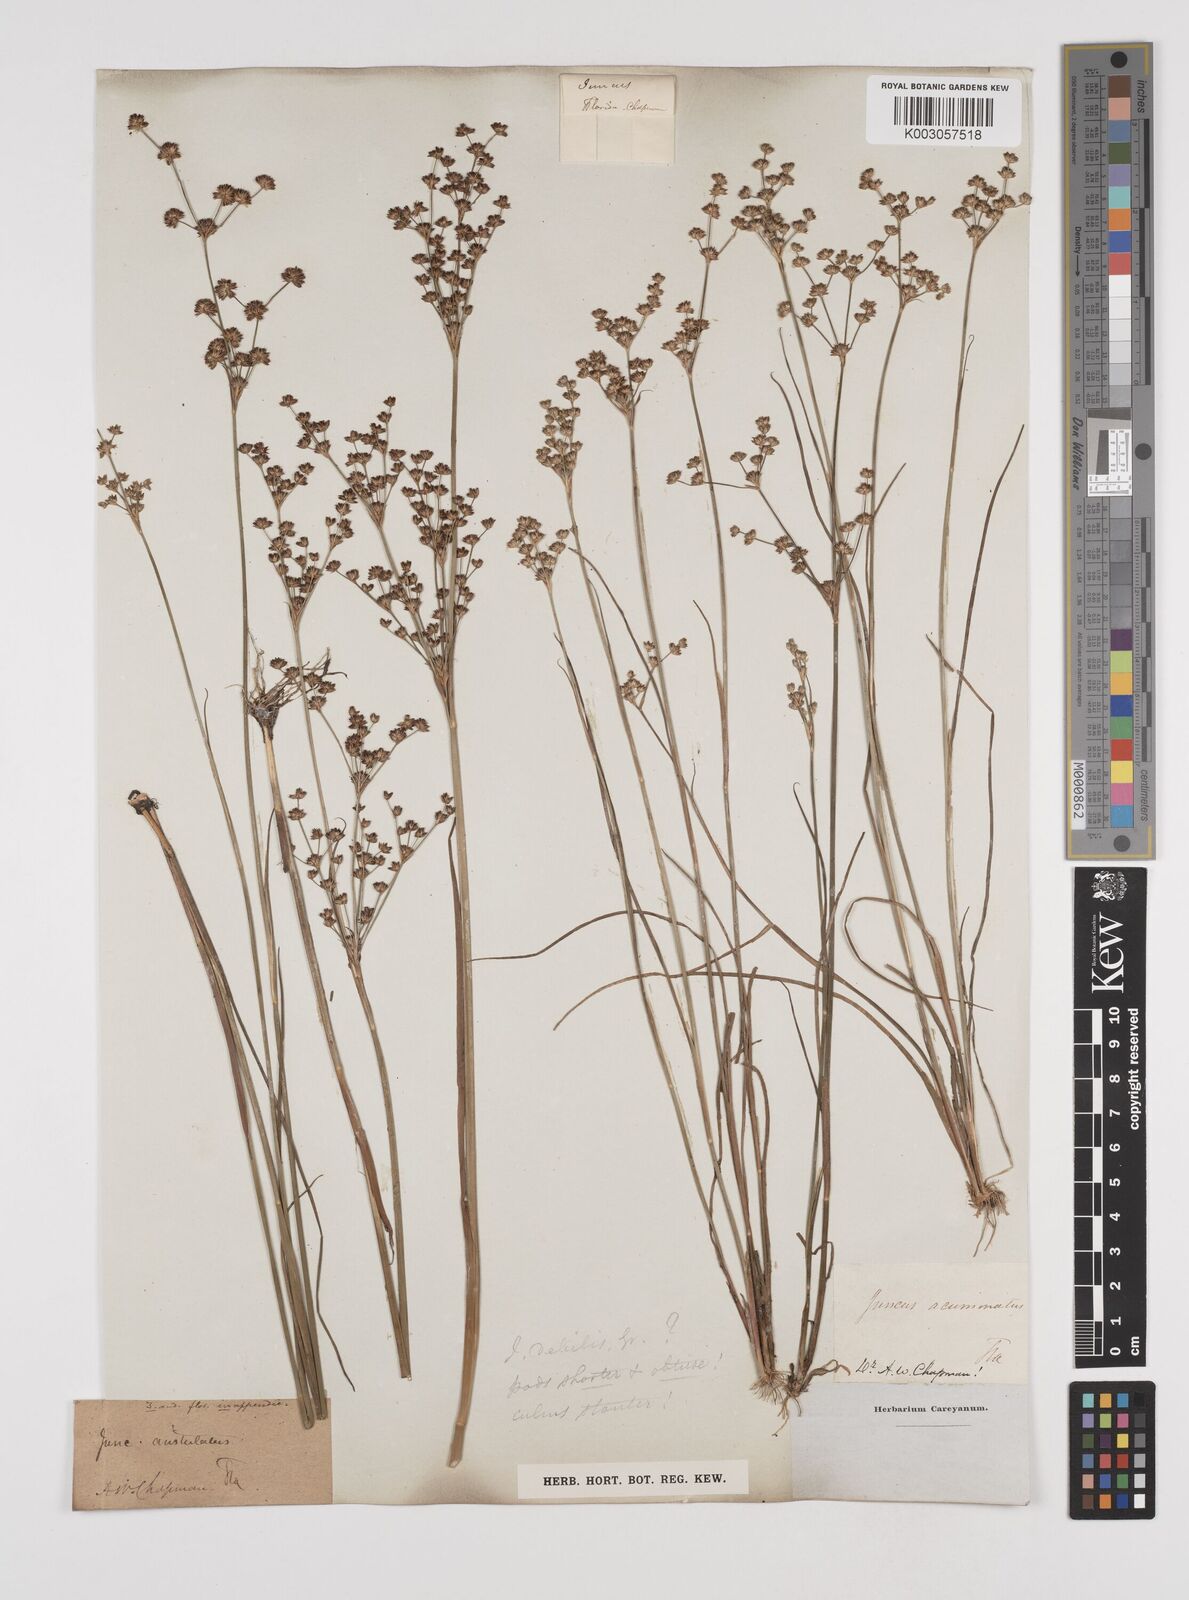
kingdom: Plantae
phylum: Tracheophyta
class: Liliopsida
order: Poales
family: Juncaceae
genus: Juncus
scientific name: Juncus debilis
